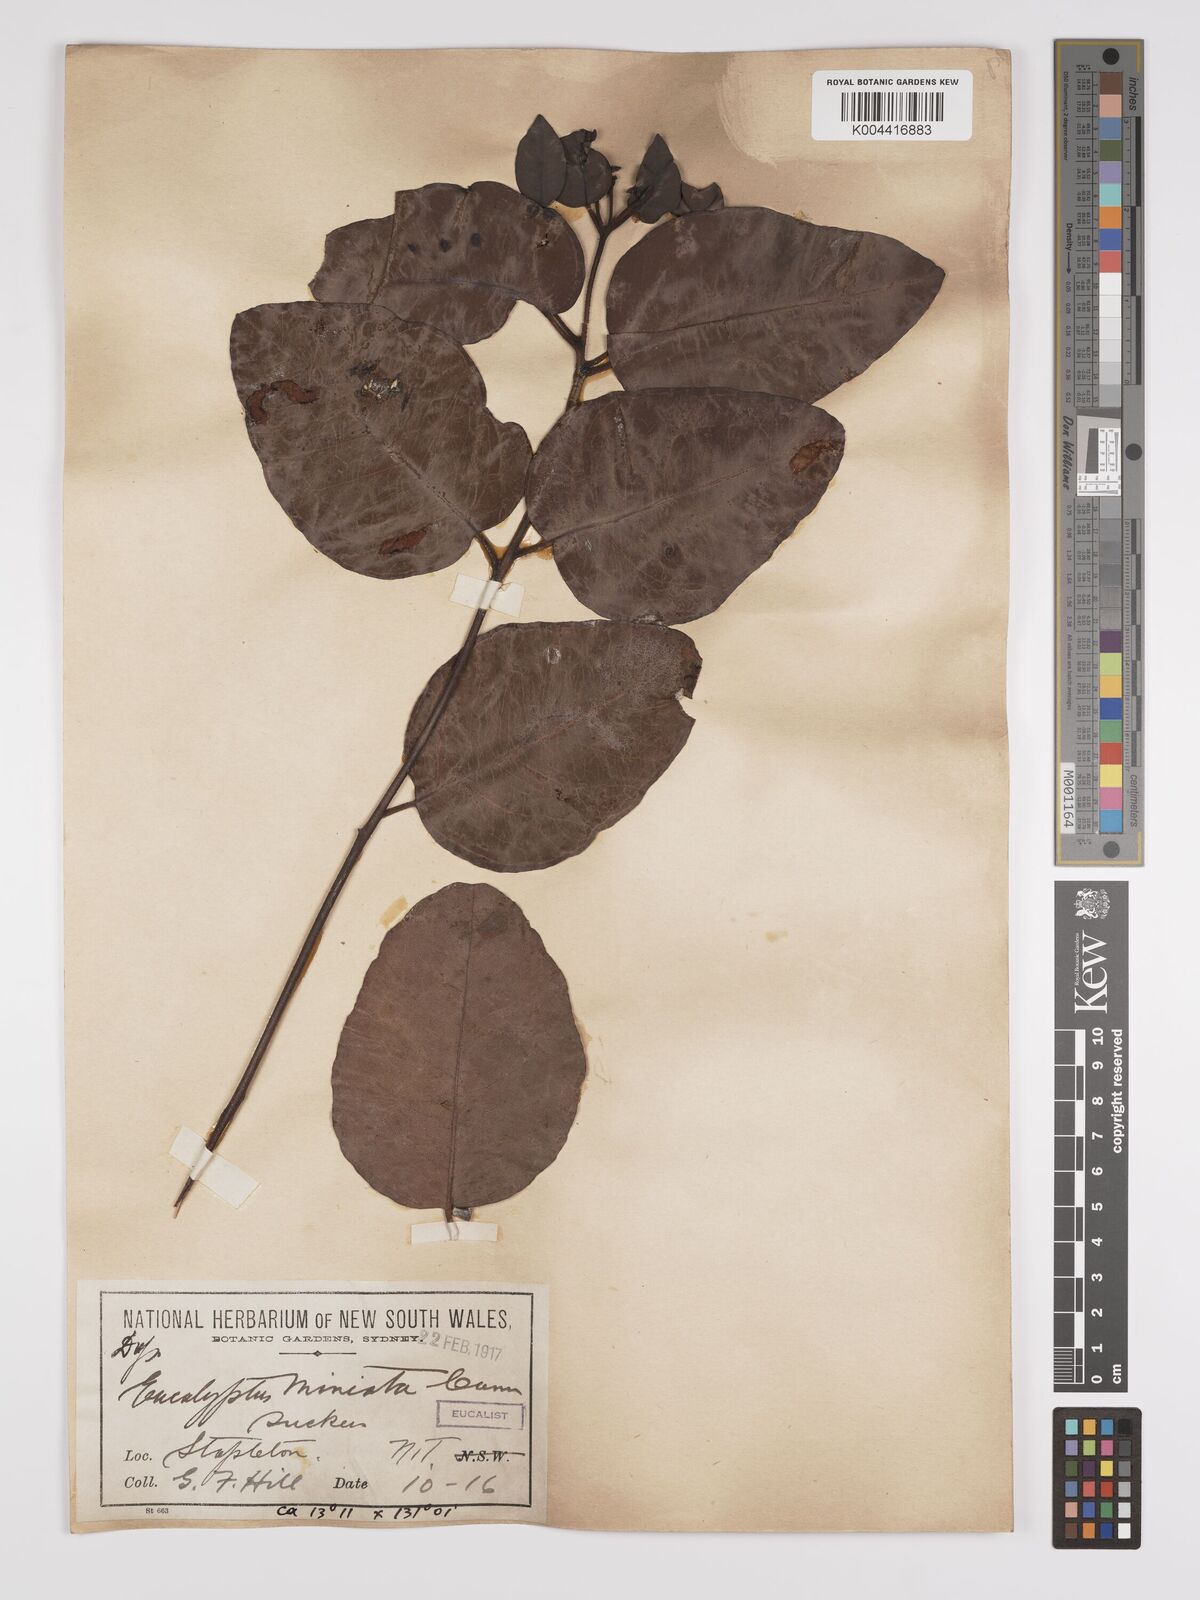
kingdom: Plantae
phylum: Tracheophyta
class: Magnoliopsida
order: Myrtales
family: Myrtaceae
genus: Eucalyptus
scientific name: Eucalyptus miniata
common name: Darwin-woollybutt
